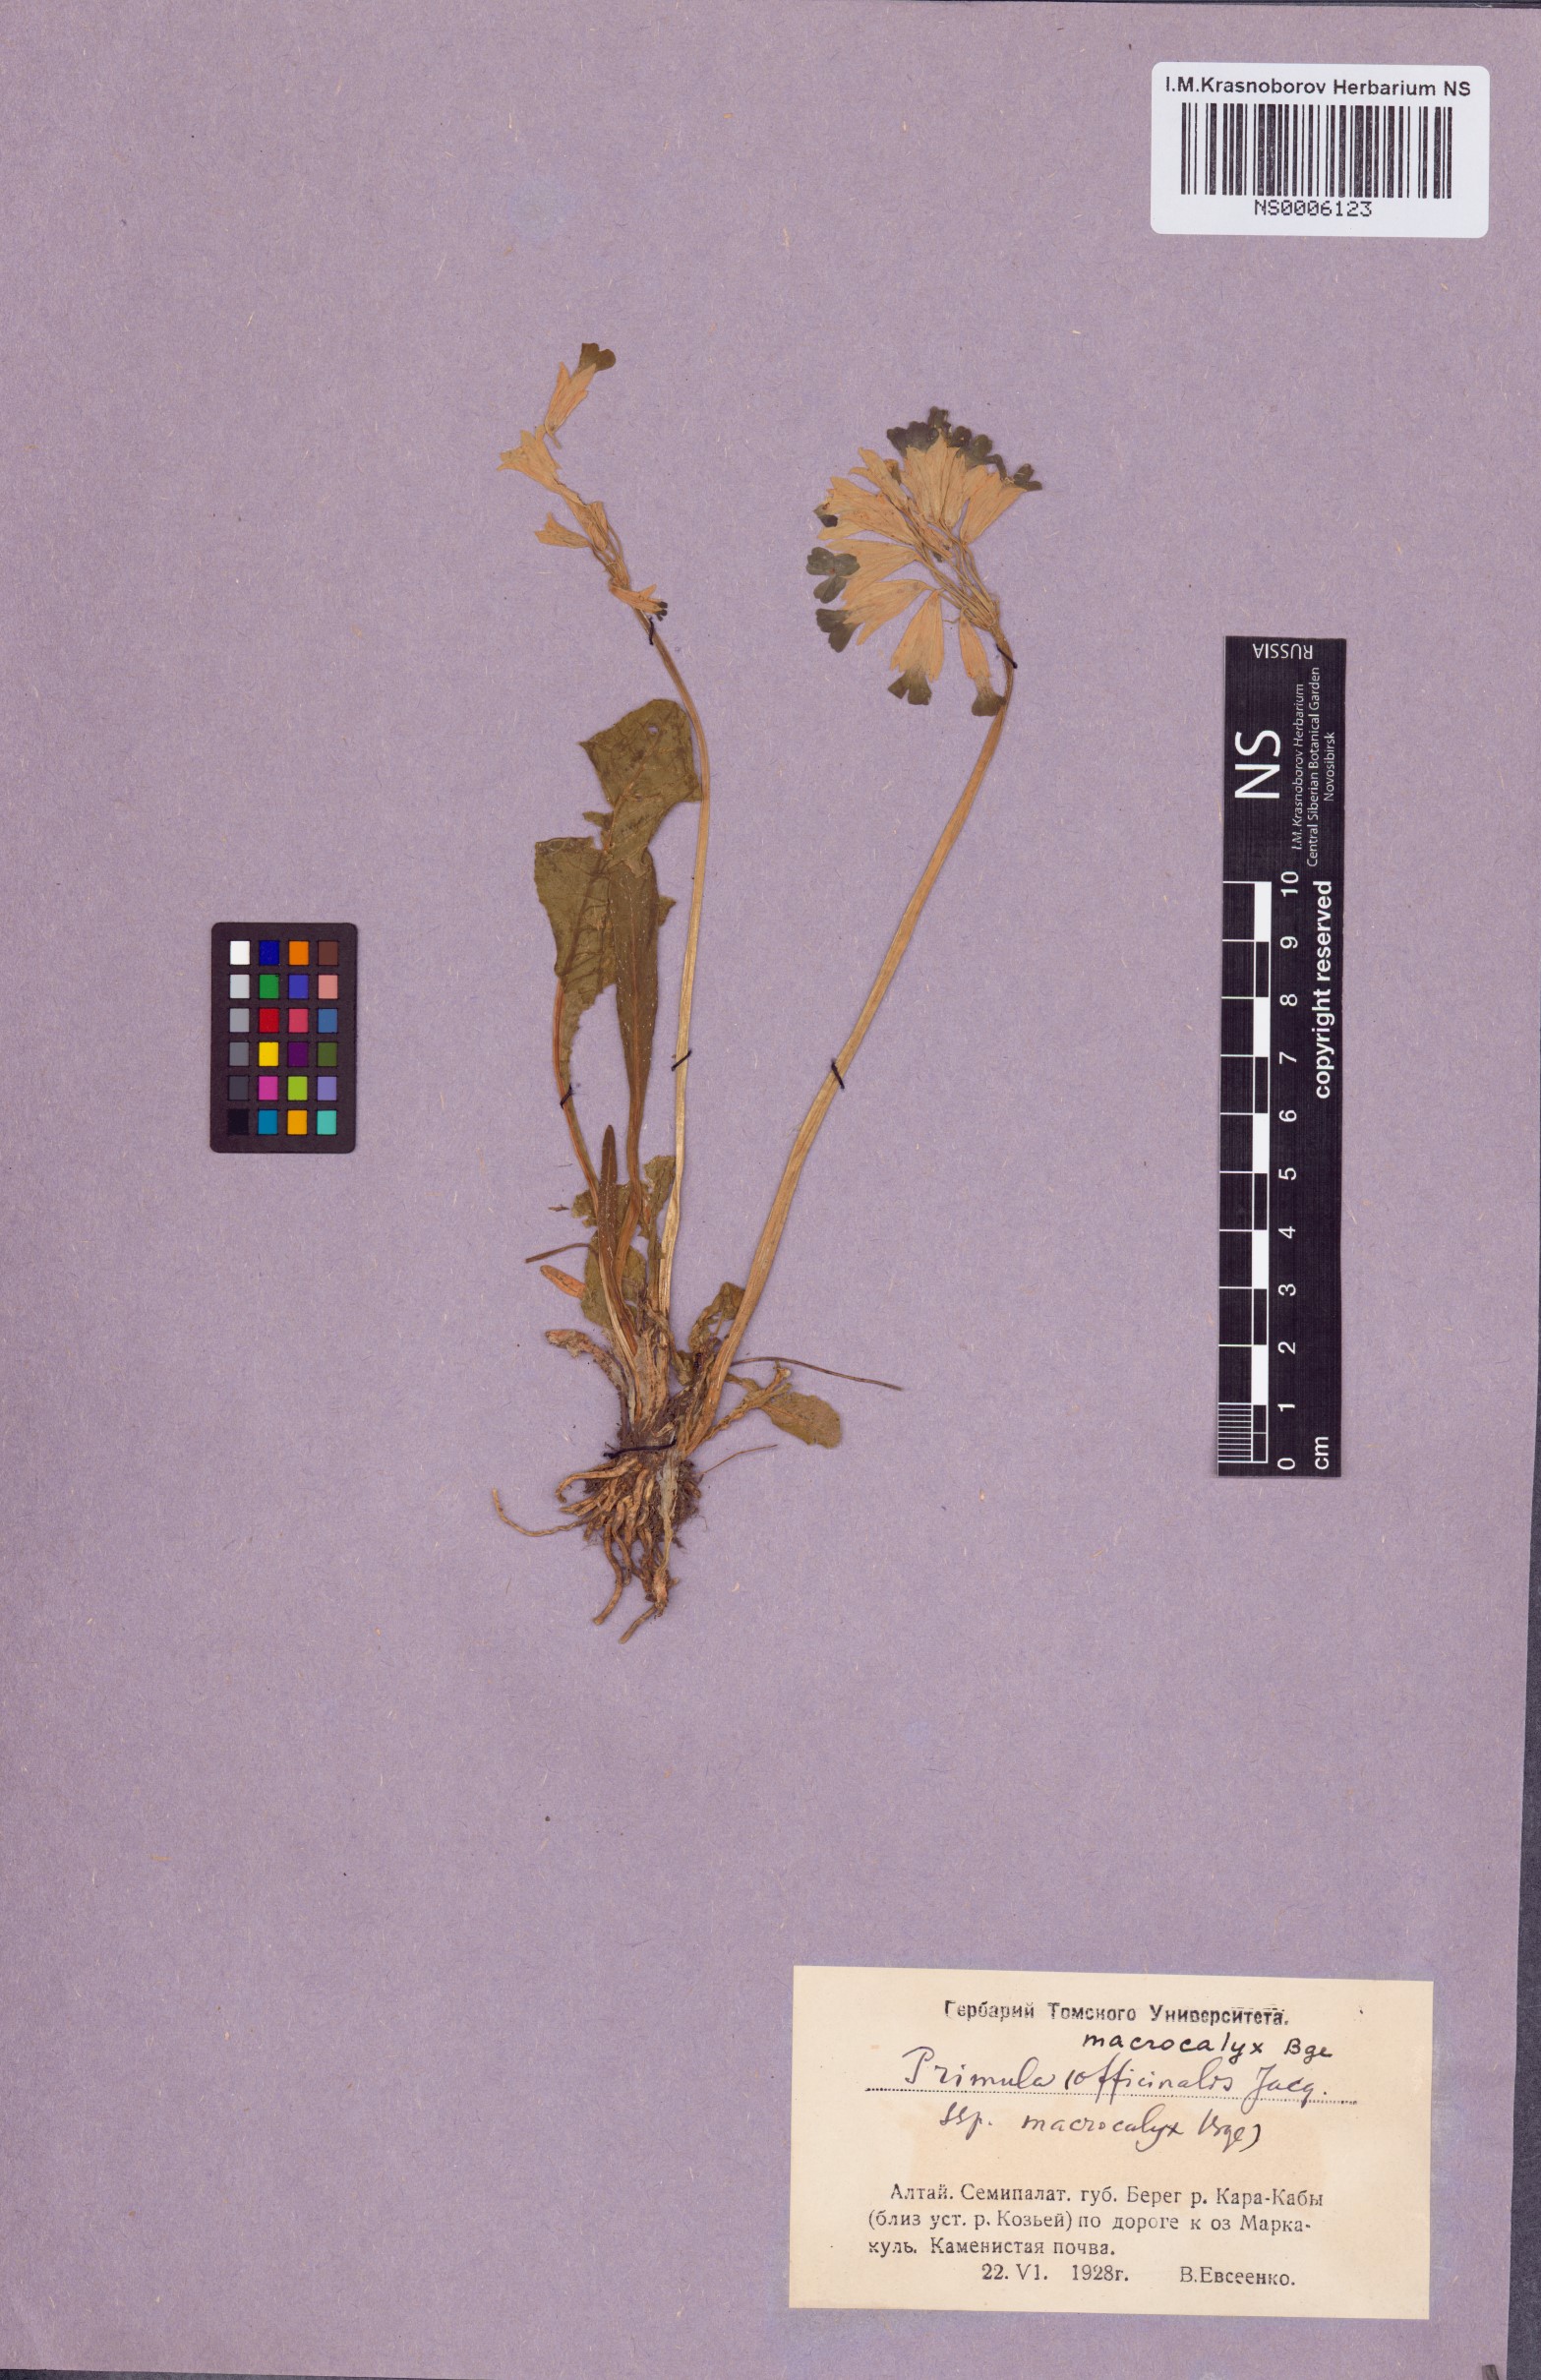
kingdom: Plantae
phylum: Tracheophyta
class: Magnoliopsida
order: Ericales
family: Primulaceae
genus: Primula
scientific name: Primula veris
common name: Cowslip
